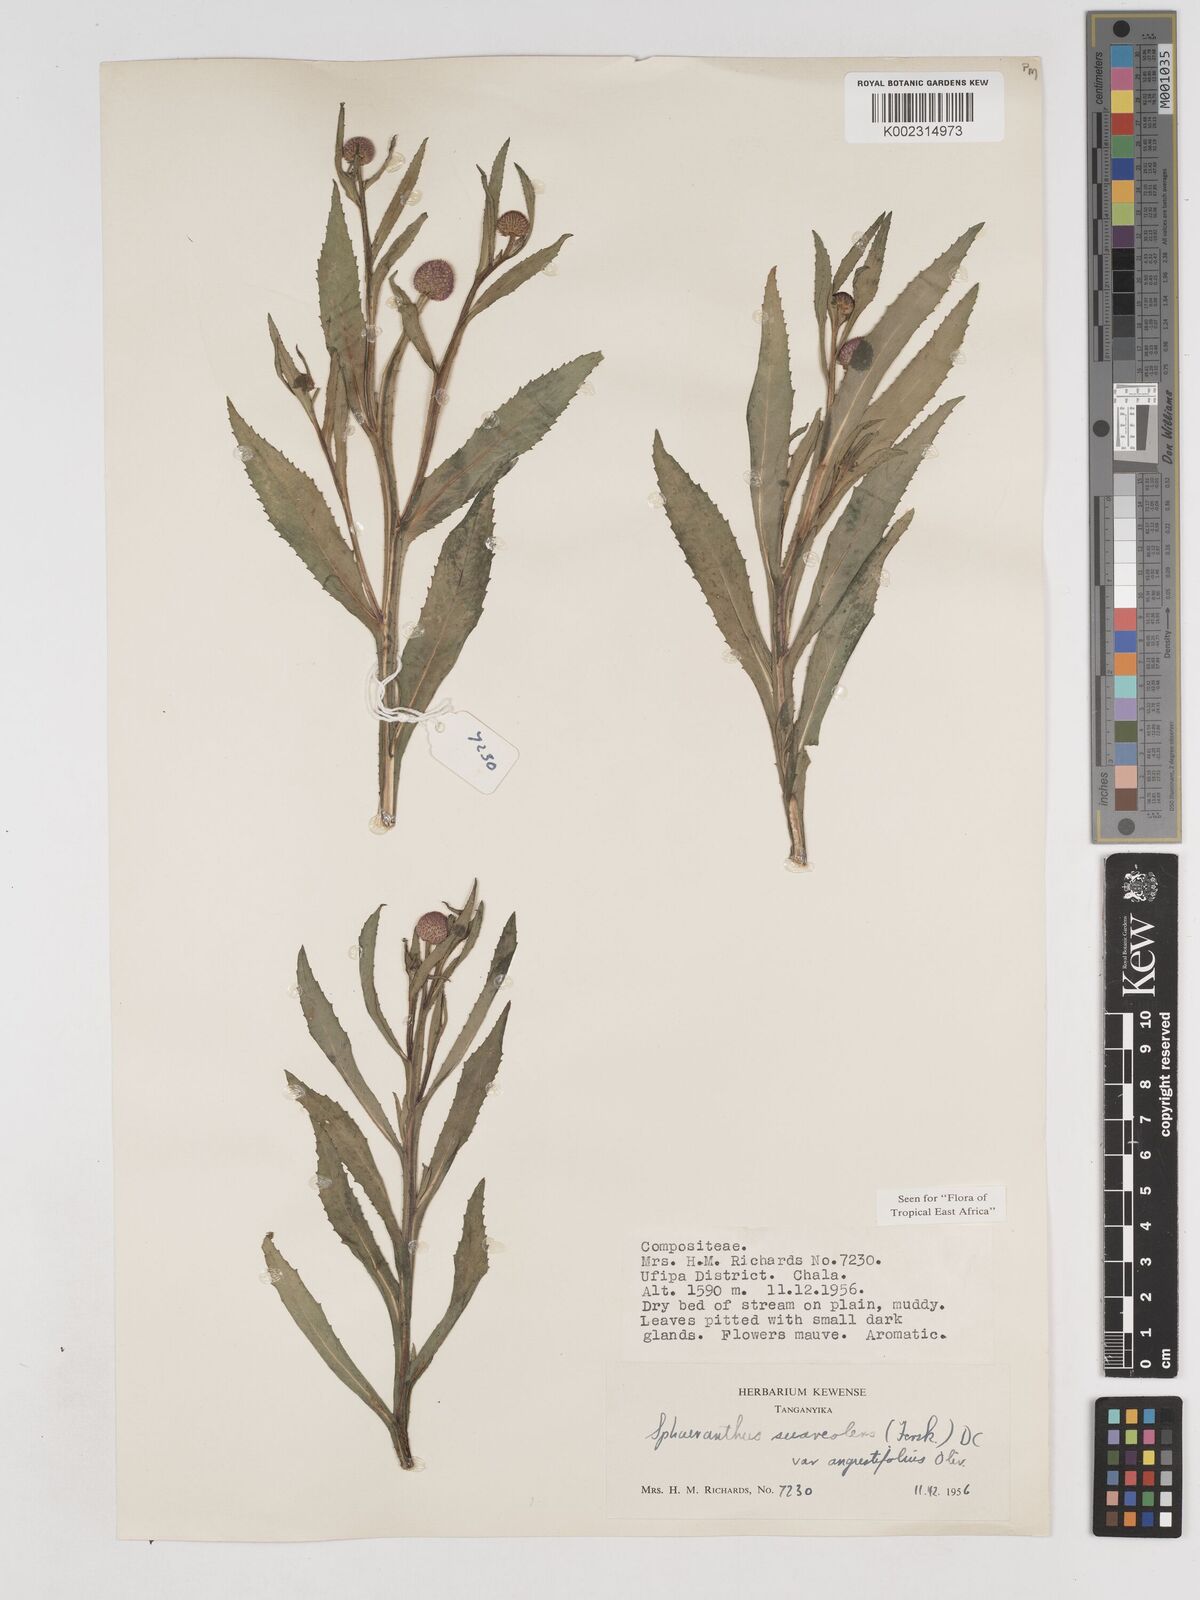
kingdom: Plantae
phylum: Tracheophyta
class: Magnoliopsida
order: Asterales
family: Asteraceae
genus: Sphaeranthus
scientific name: Sphaeranthus suaveolens
